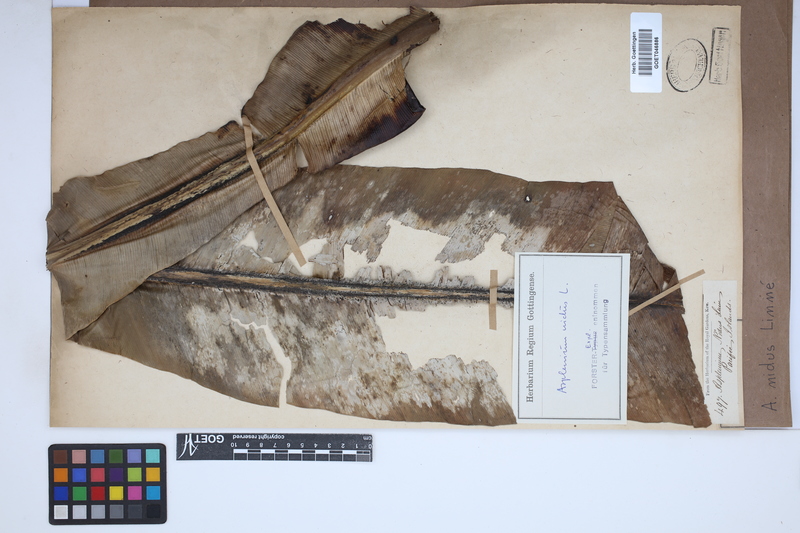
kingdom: Plantae
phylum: Tracheophyta
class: Polypodiopsida
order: Polypodiales
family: Aspleniaceae
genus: Asplenium
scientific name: Asplenium nidus
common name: Bird's-nest fern
